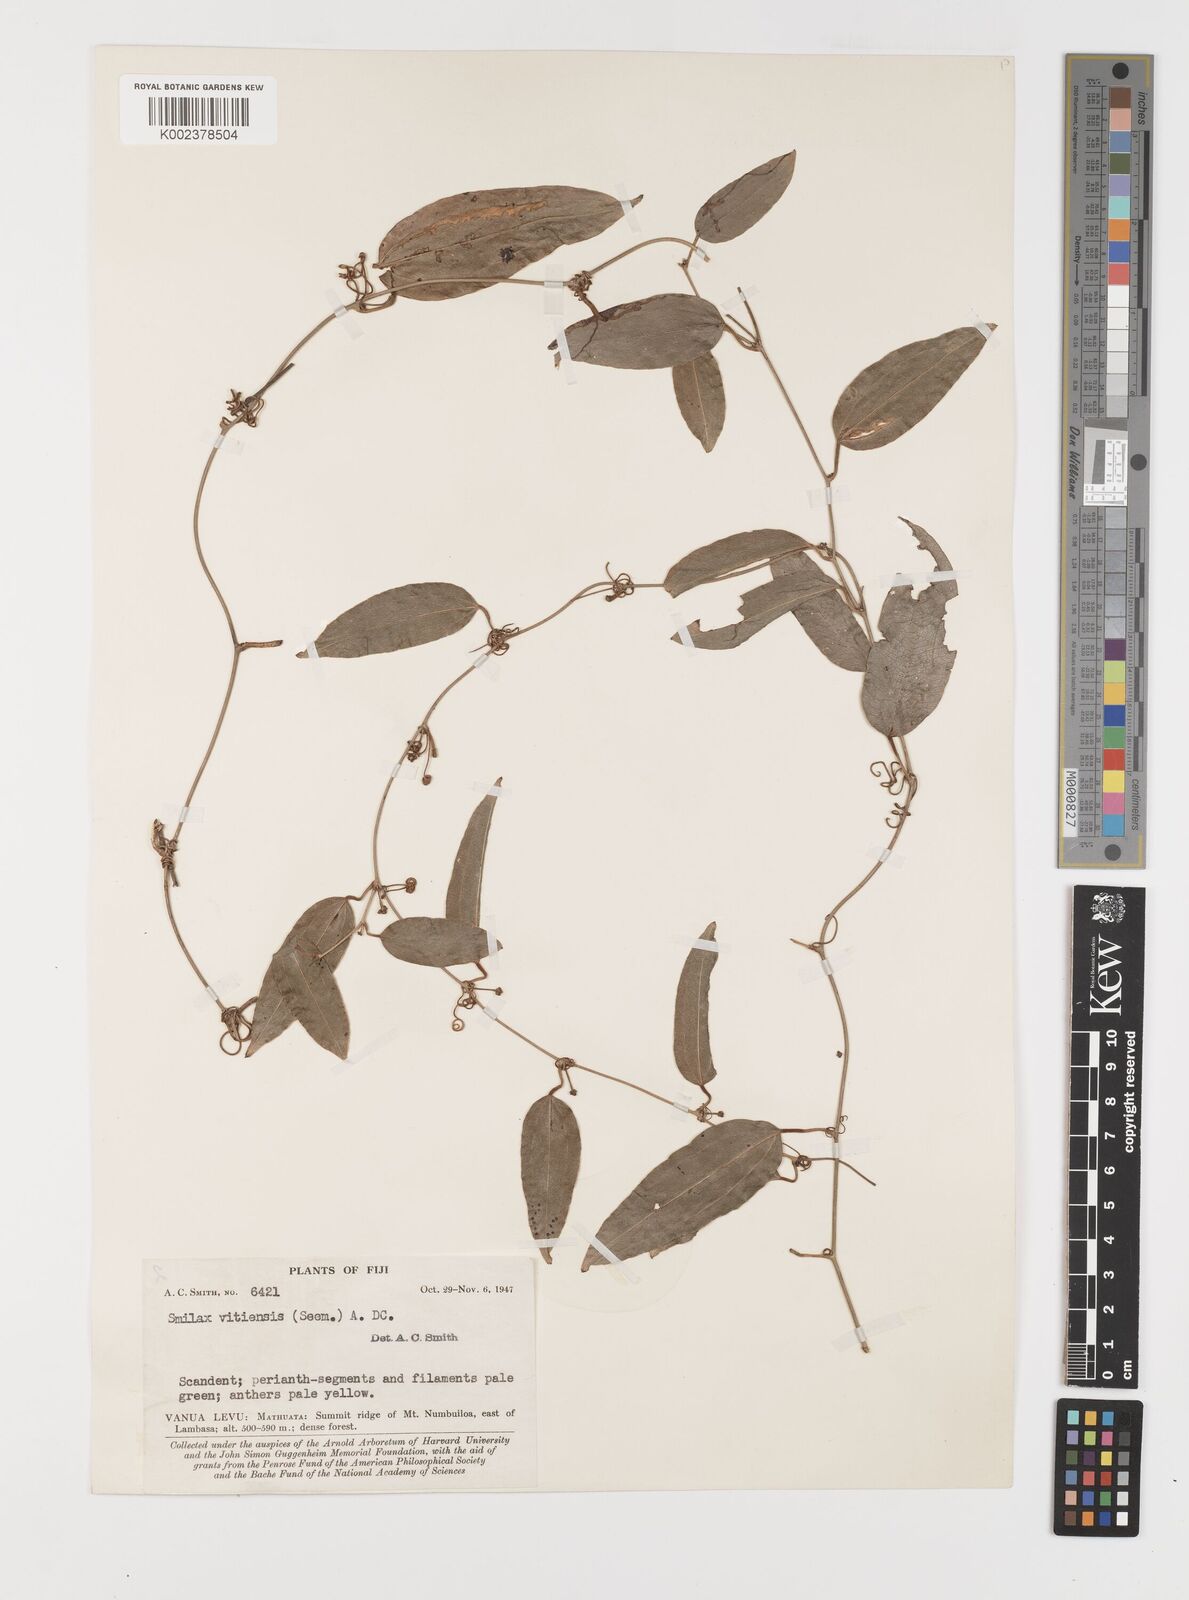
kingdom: Plantae
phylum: Tracheophyta
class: Liliopsida
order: Liliales
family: Smilacaceae
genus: Smilax
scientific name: Smilax vitiensis
